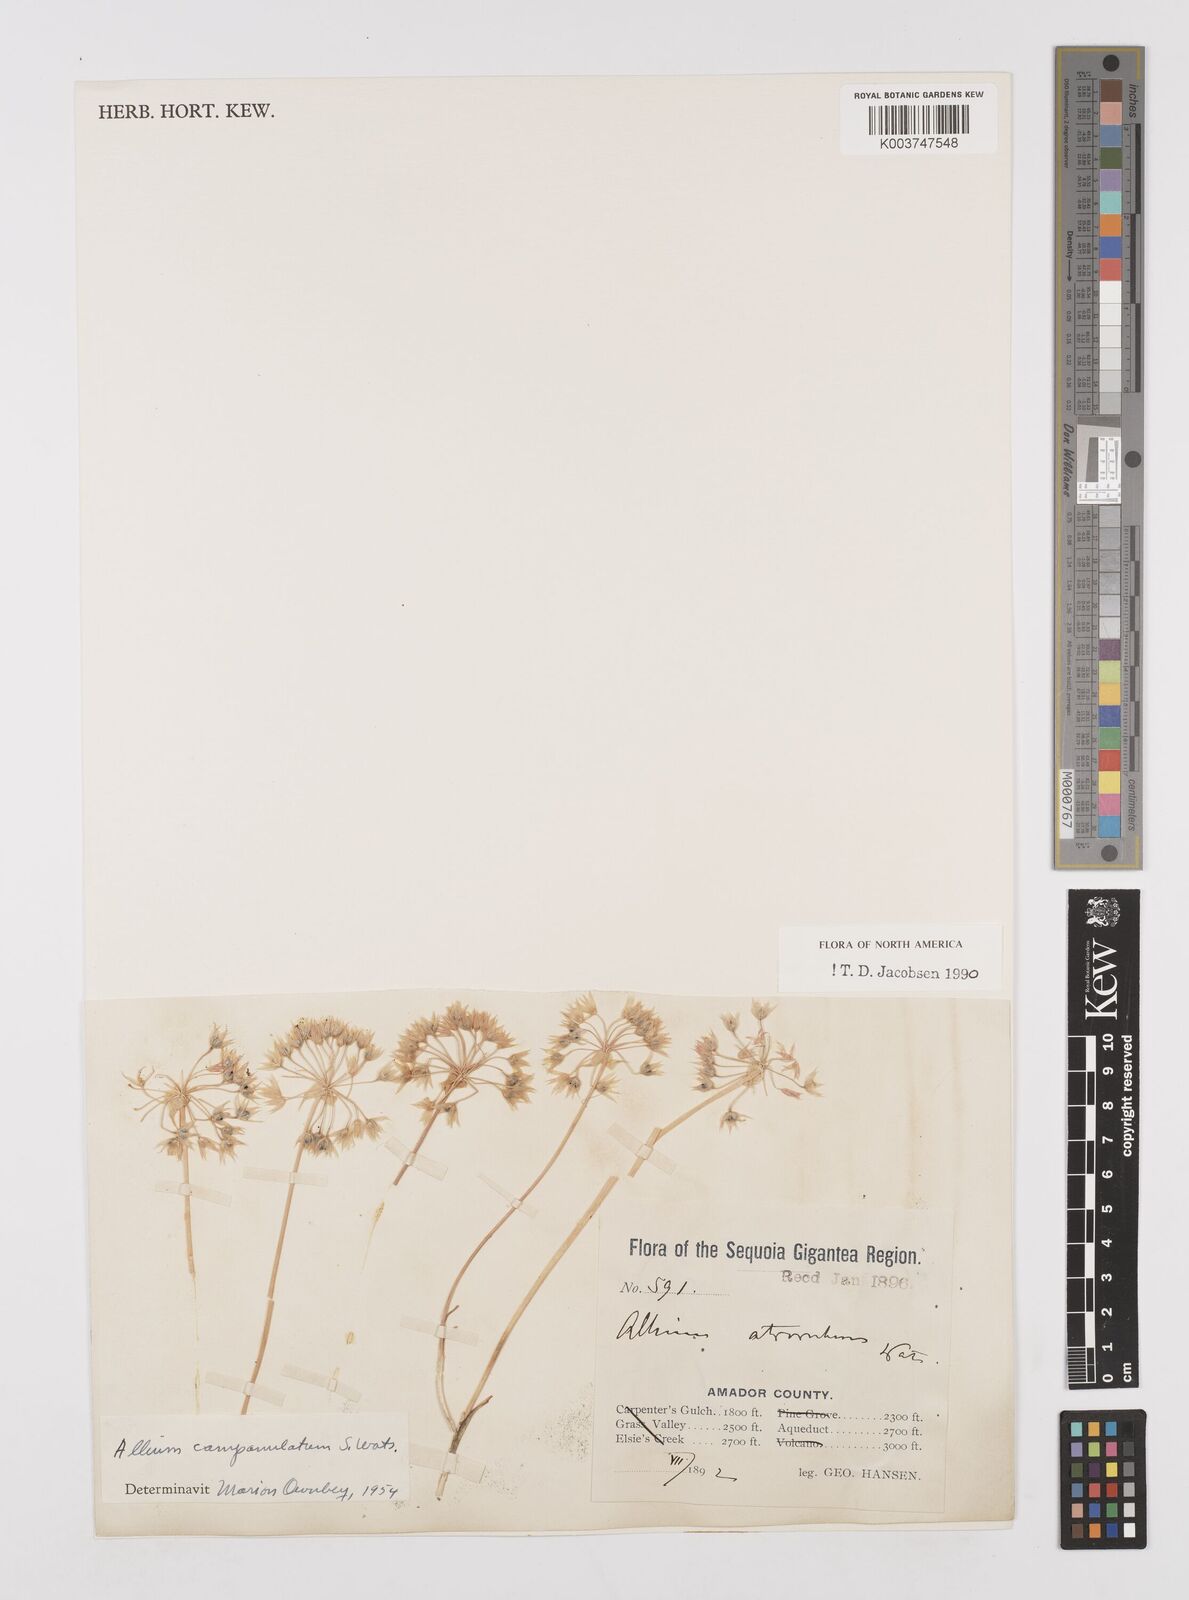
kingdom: Plantae
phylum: Tracheophyta
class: Liliopsida
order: Asparagales
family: Amaryllidaceae
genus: Allium
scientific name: Allium campanulatum
